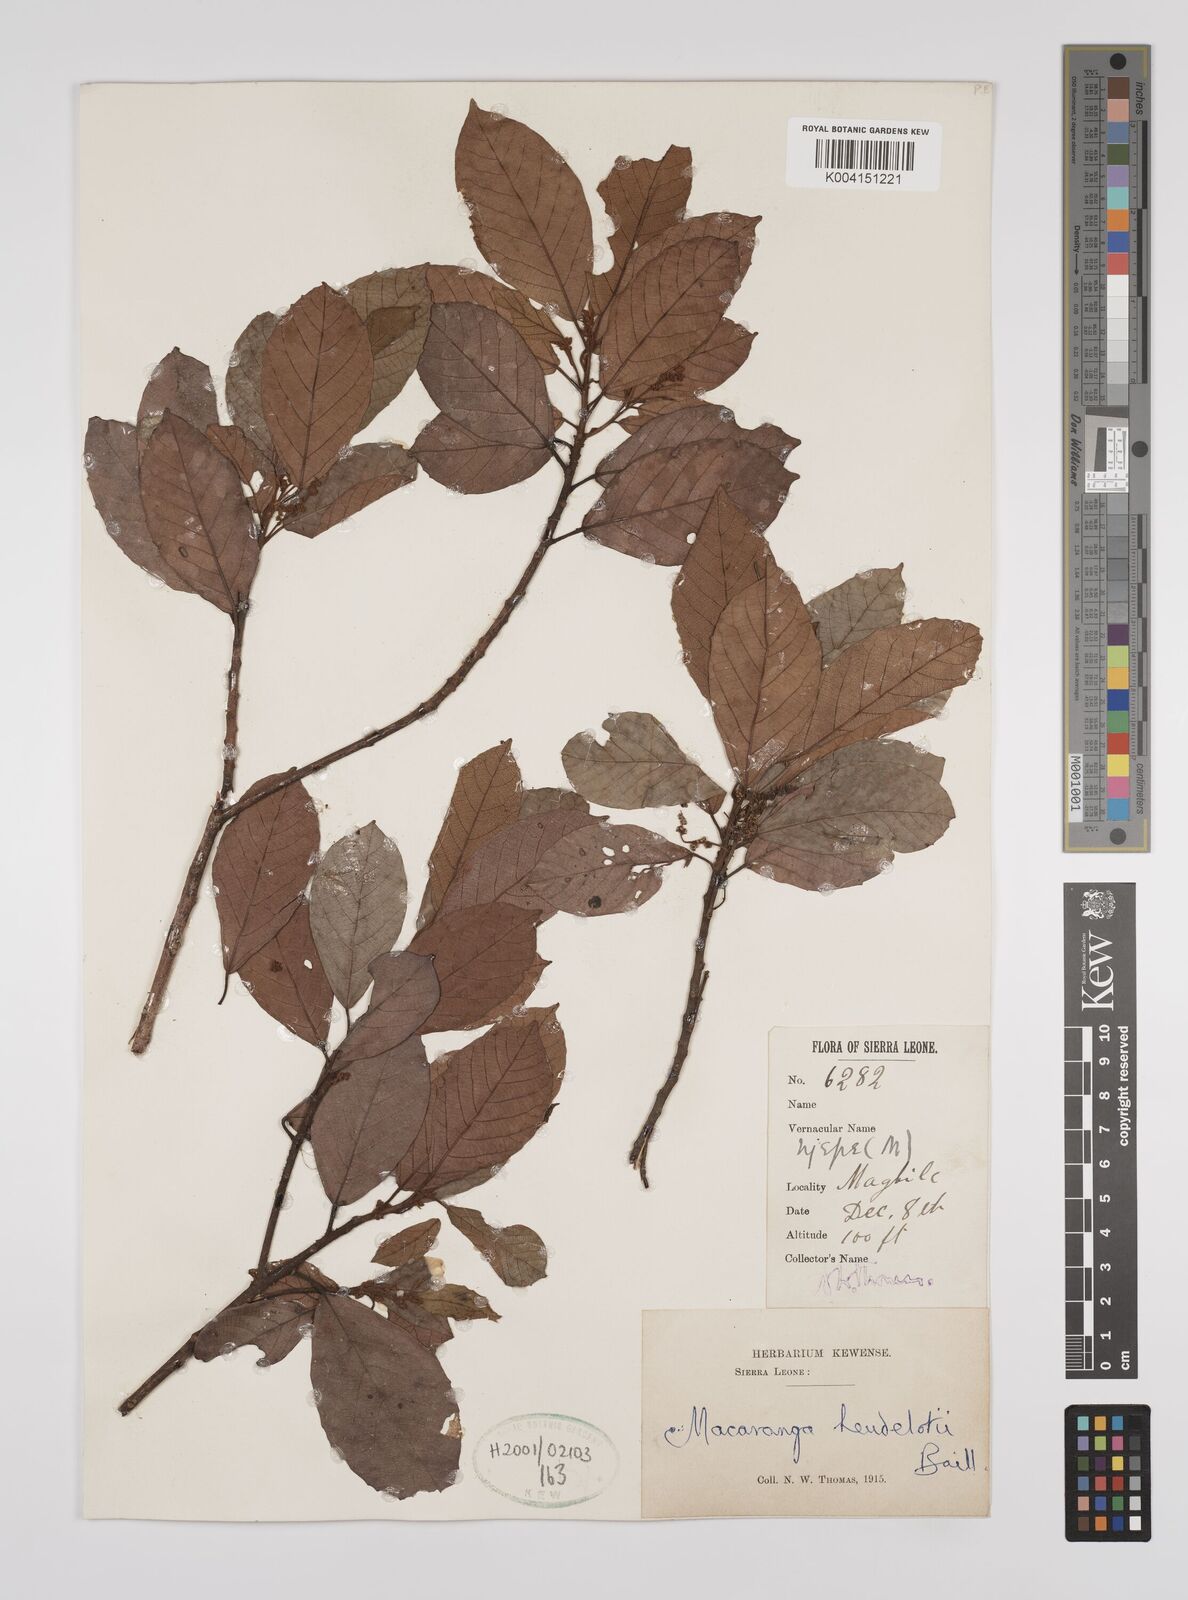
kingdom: Plantae
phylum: Tracheophyta
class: Magnoliopsida
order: Malpighiales
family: Euphorbiaceae
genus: Macaranga
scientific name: Macaranga heudelotii
